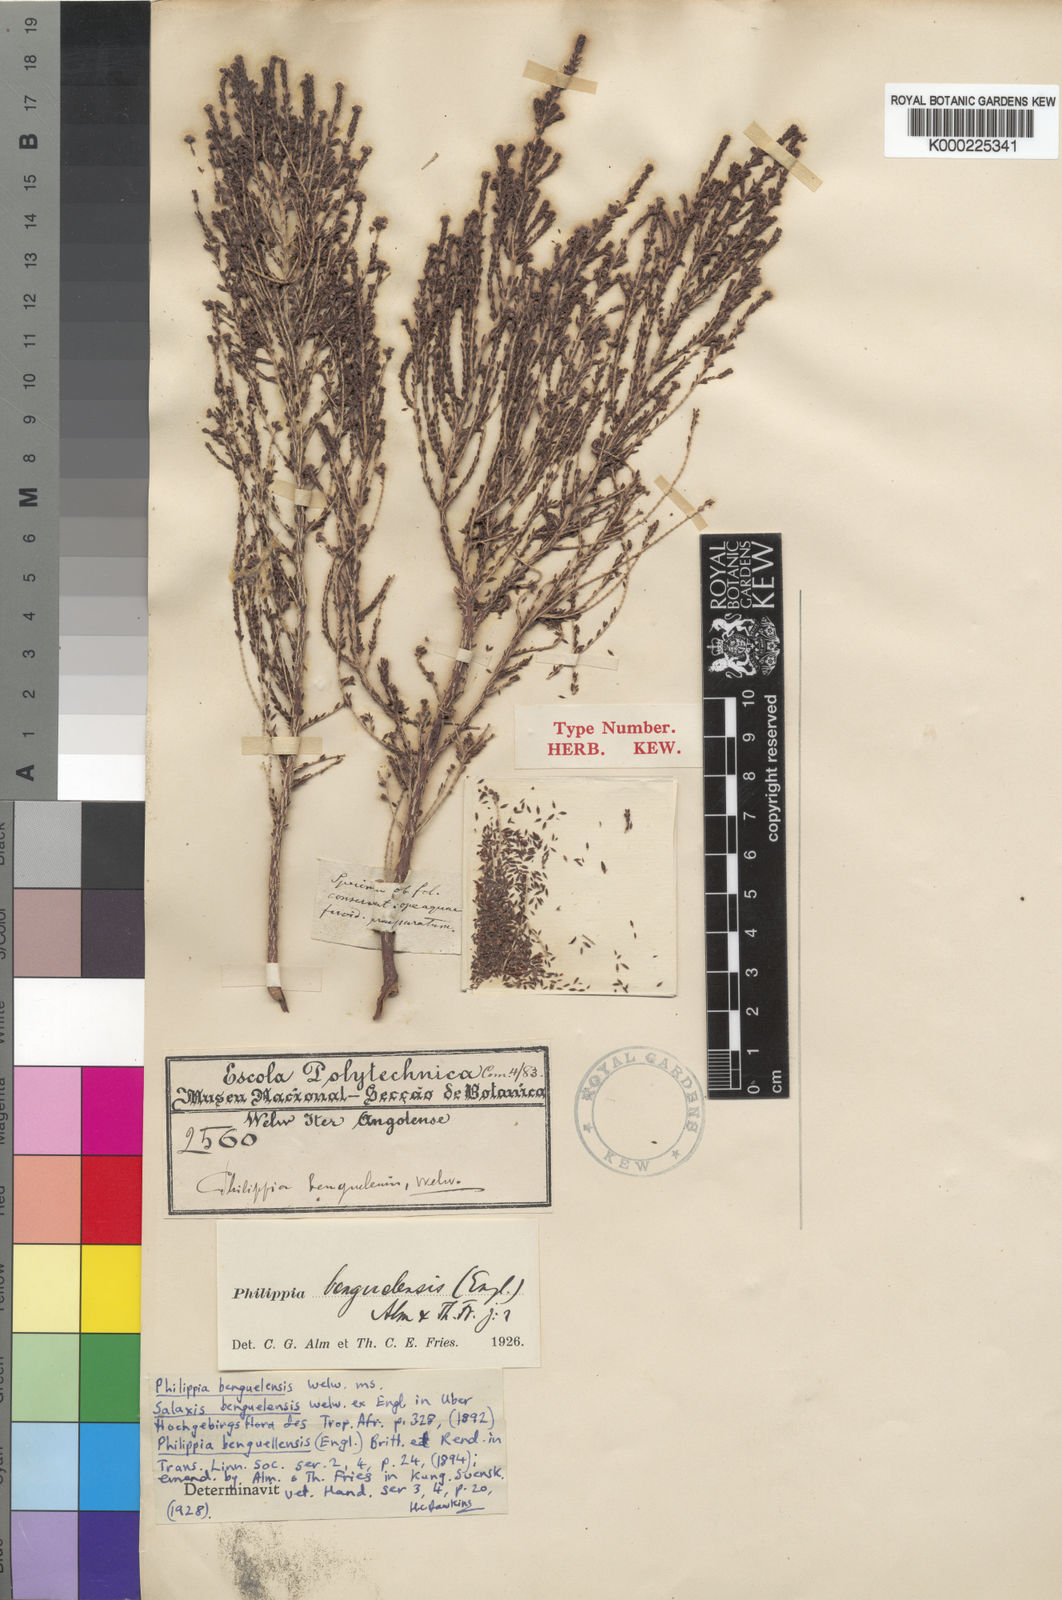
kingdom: Plantae
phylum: Tracheophyta
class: Magnoliopsida
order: Ericales
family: Ericaceae
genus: Erica
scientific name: Erica benguelensis
